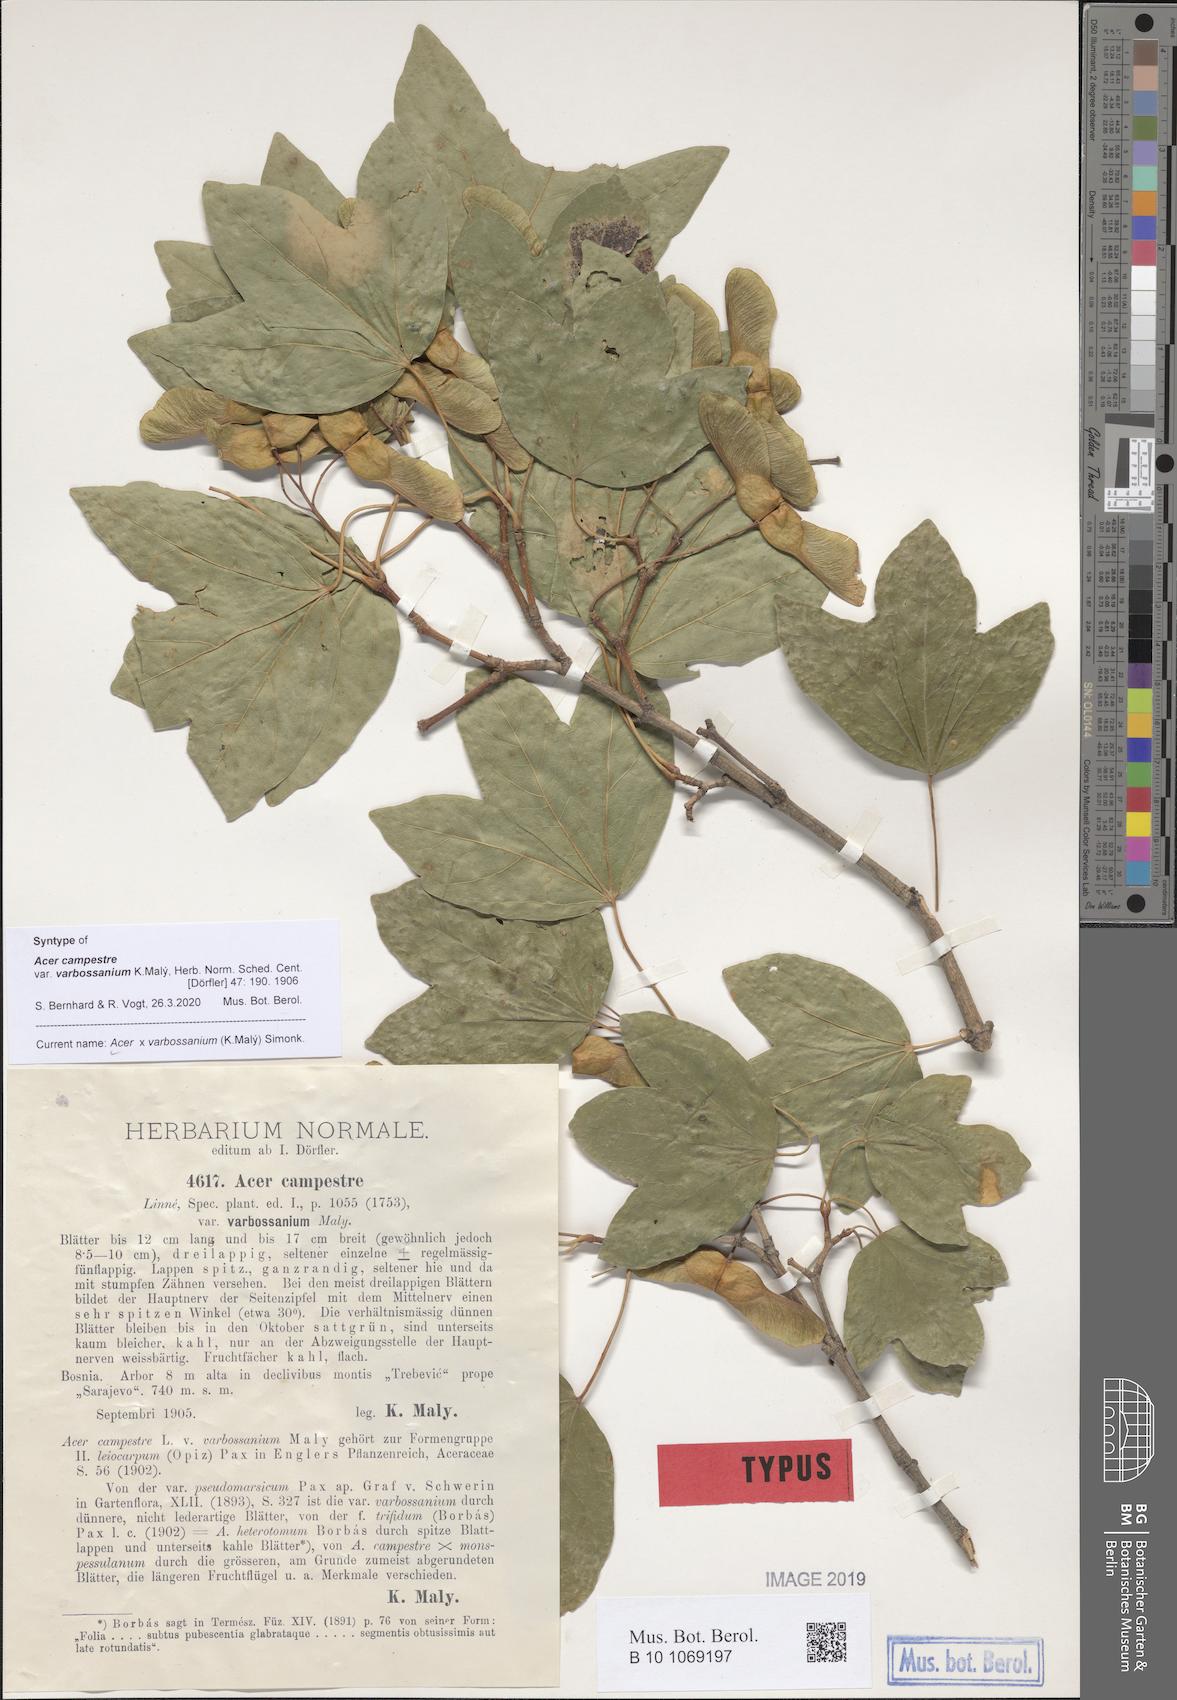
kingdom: Plantae
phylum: Tracheophyta
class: Magnoliopsida
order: Sapindales
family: Sapindaceae
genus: Acer
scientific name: Acer varbossanium
